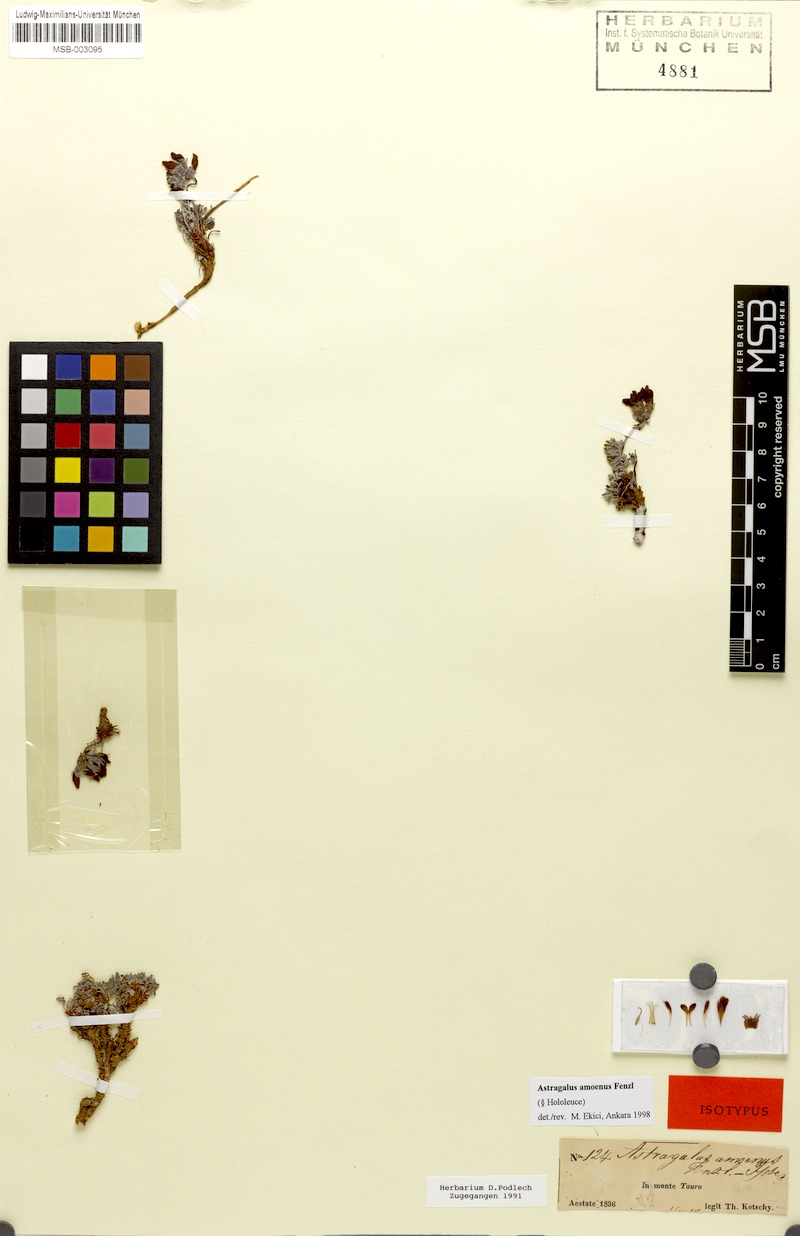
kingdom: Plantae
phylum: Tracheophyta
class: Magnoliopsida
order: Fabales
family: Fabaceae
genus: Astragalus
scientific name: Astragalus amoenus
